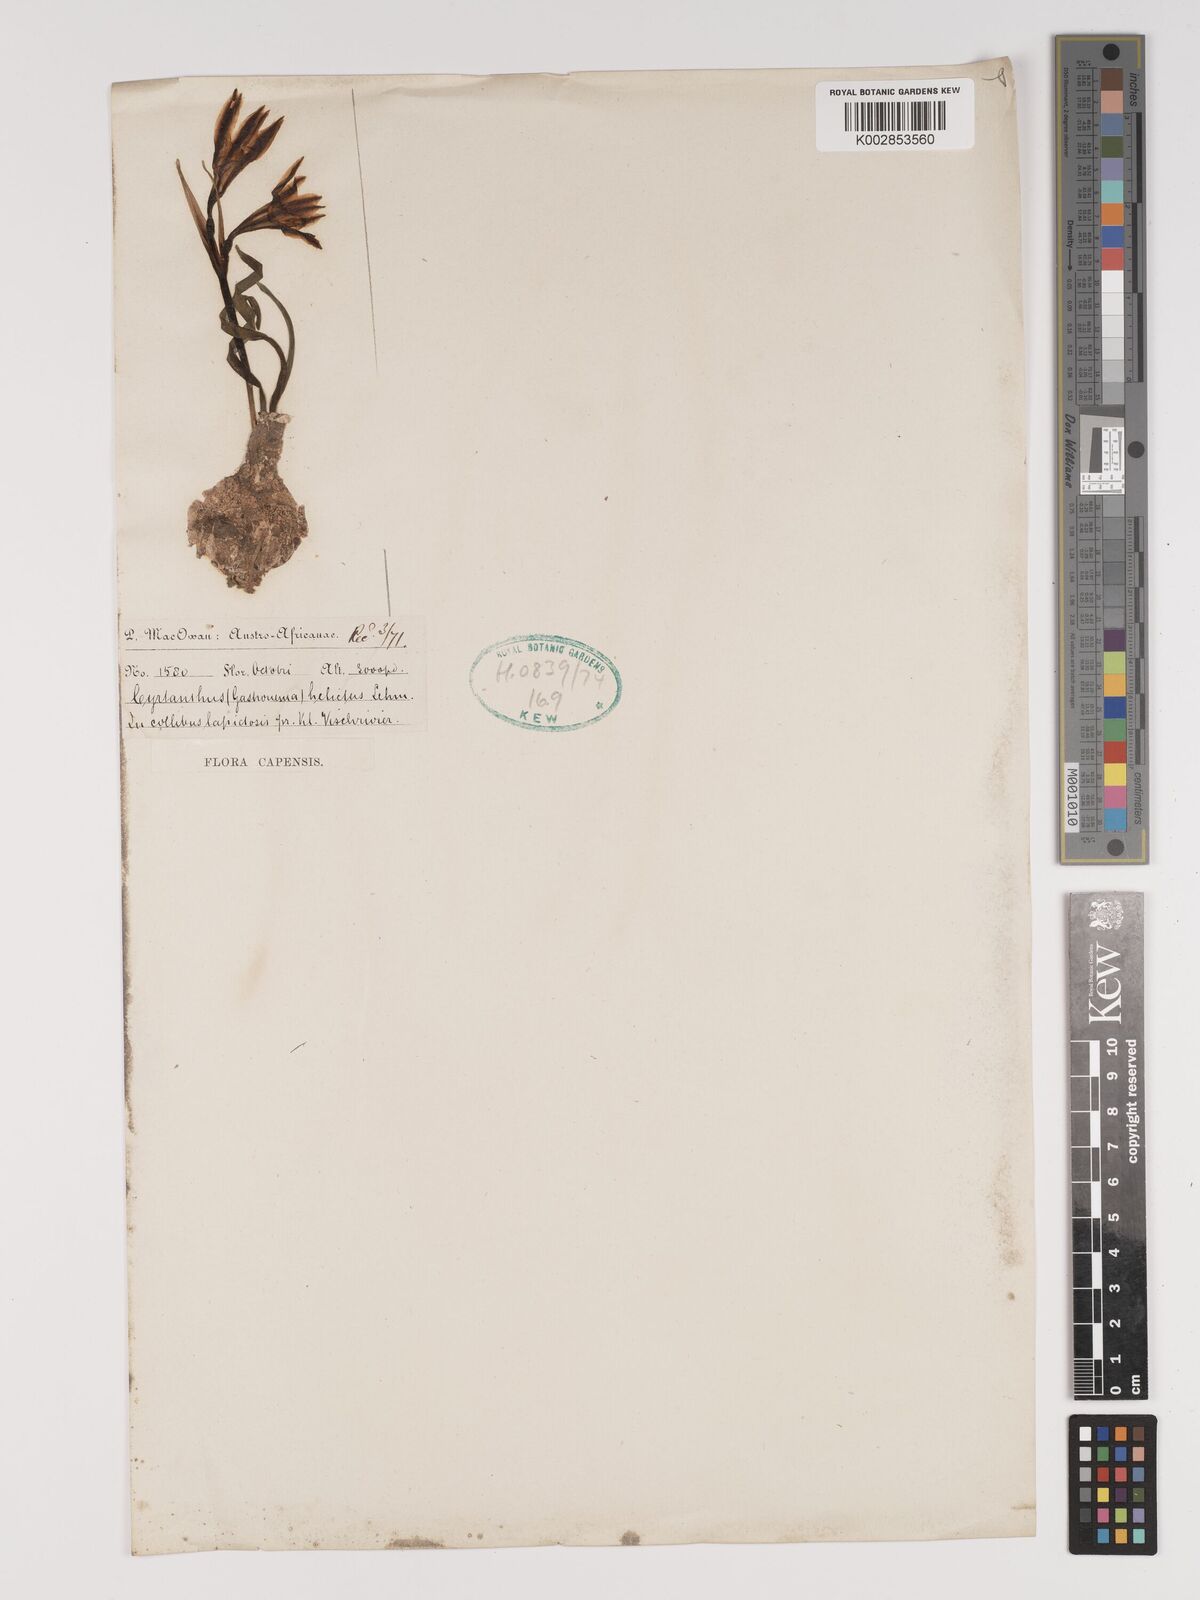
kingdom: Plantae
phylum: Tracheophyta
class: Liliopsida
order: Asparagales
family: Amaryllidaceae
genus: Cyrtanthus
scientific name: Cyrtanthus helictus
